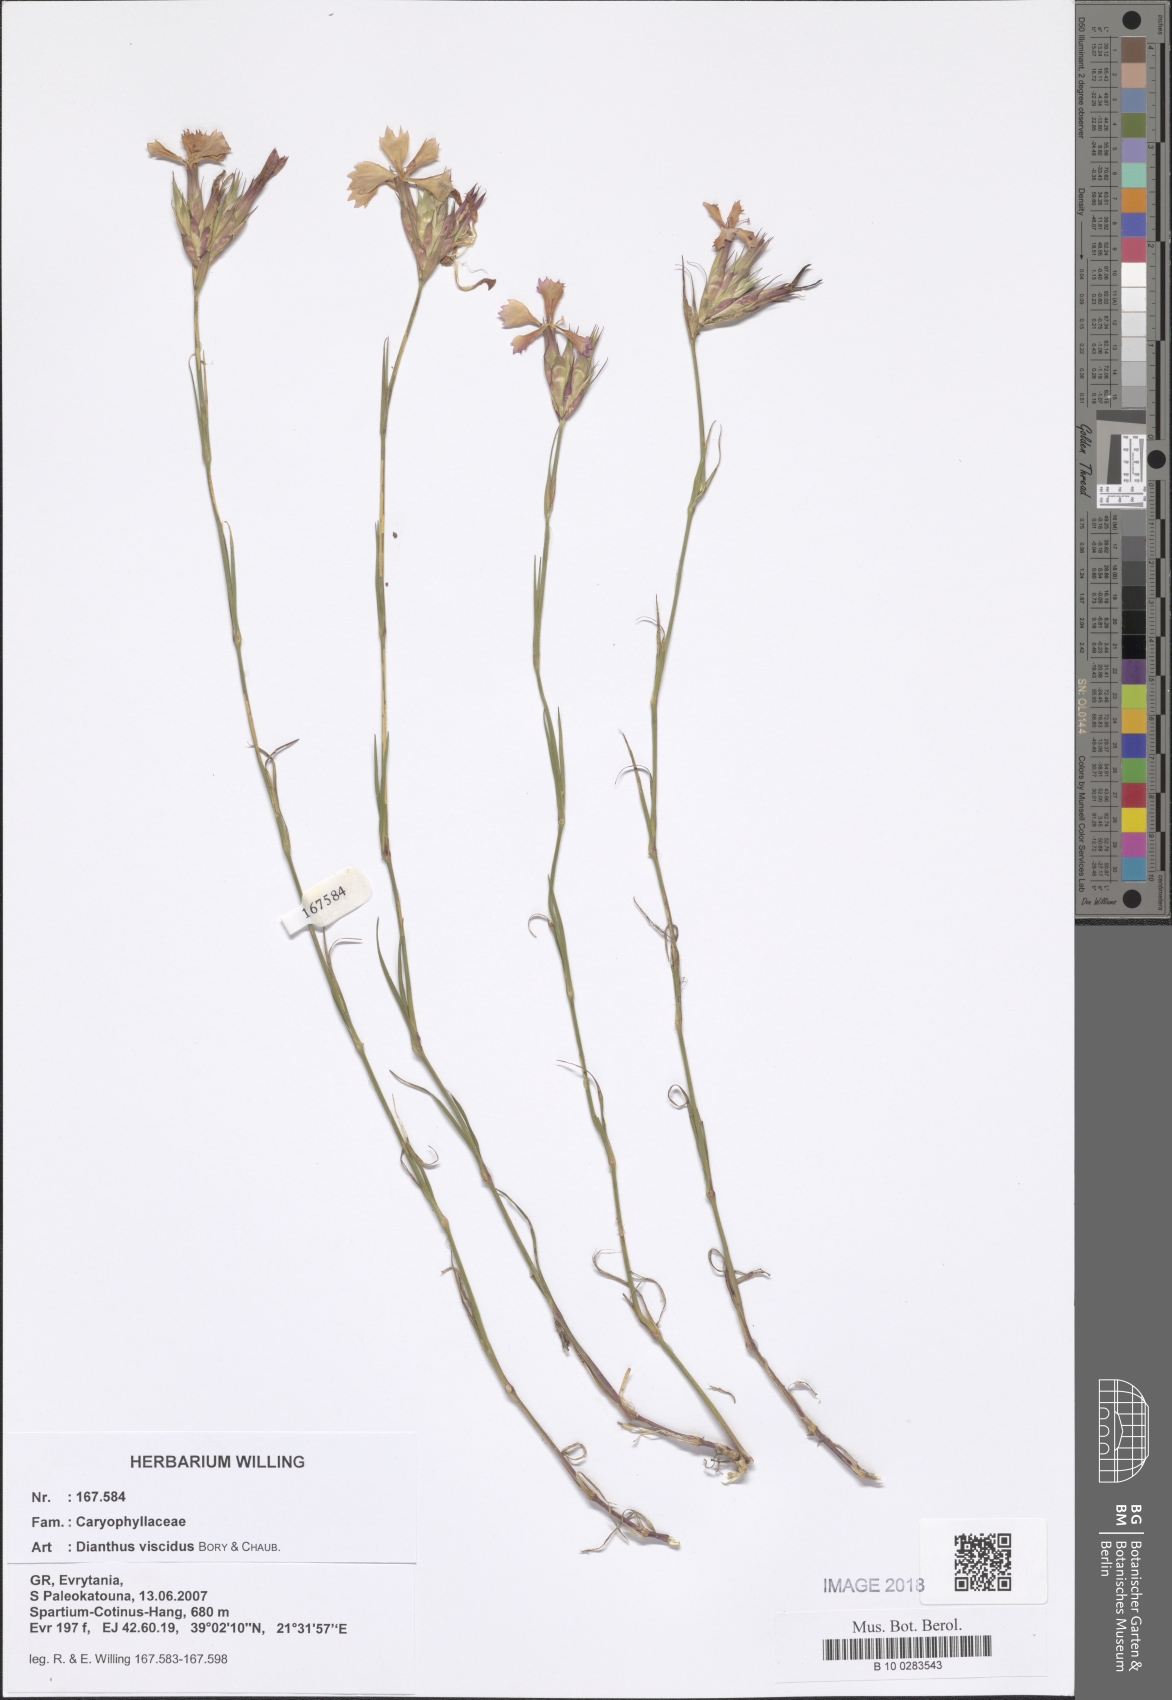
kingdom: Plantae
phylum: Tracheophyta
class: Magnoliopsida
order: Caryophyllales
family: Caryophyllaceae
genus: Dianthus
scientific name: Dianthus viscidus
